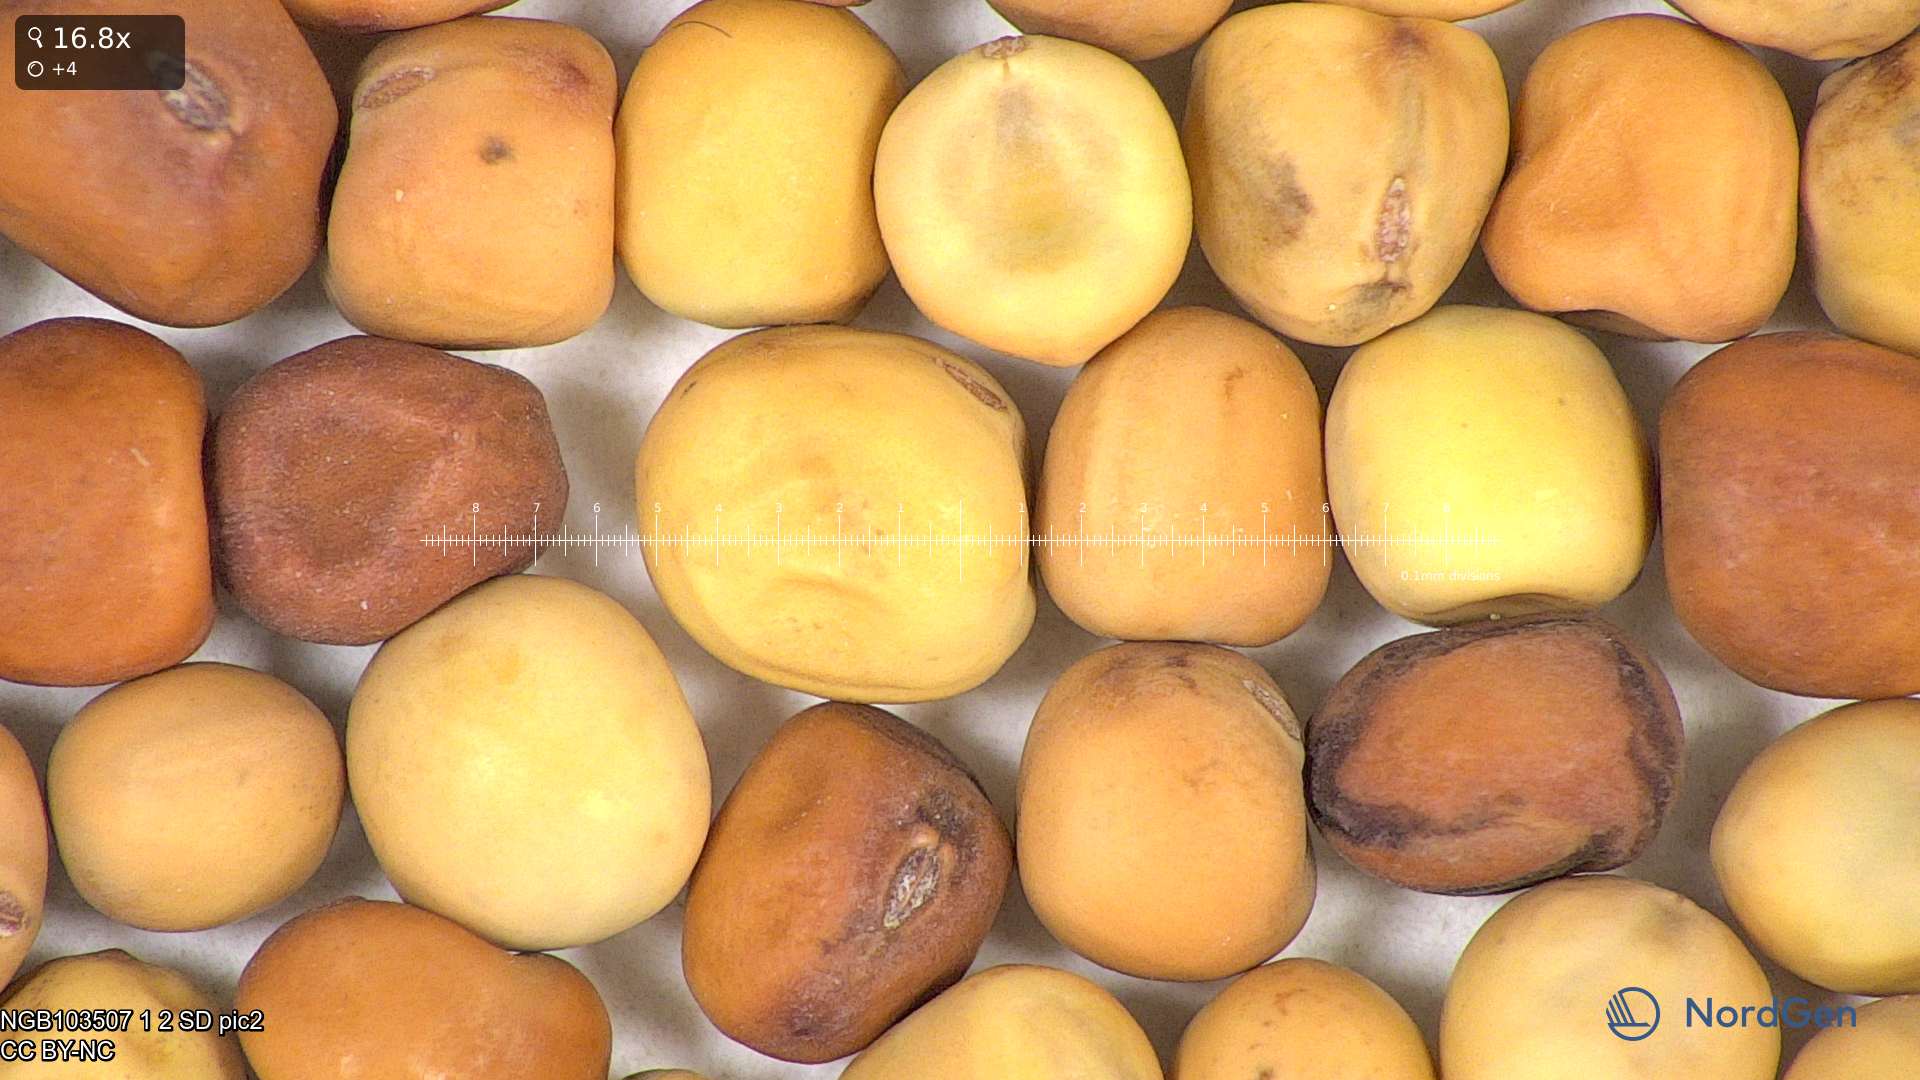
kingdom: Plantae
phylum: Tracheophyta
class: Magnoliopsida
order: Fabales
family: Fabaceae
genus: Lathyrus
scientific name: Lathyrus oleraceus
